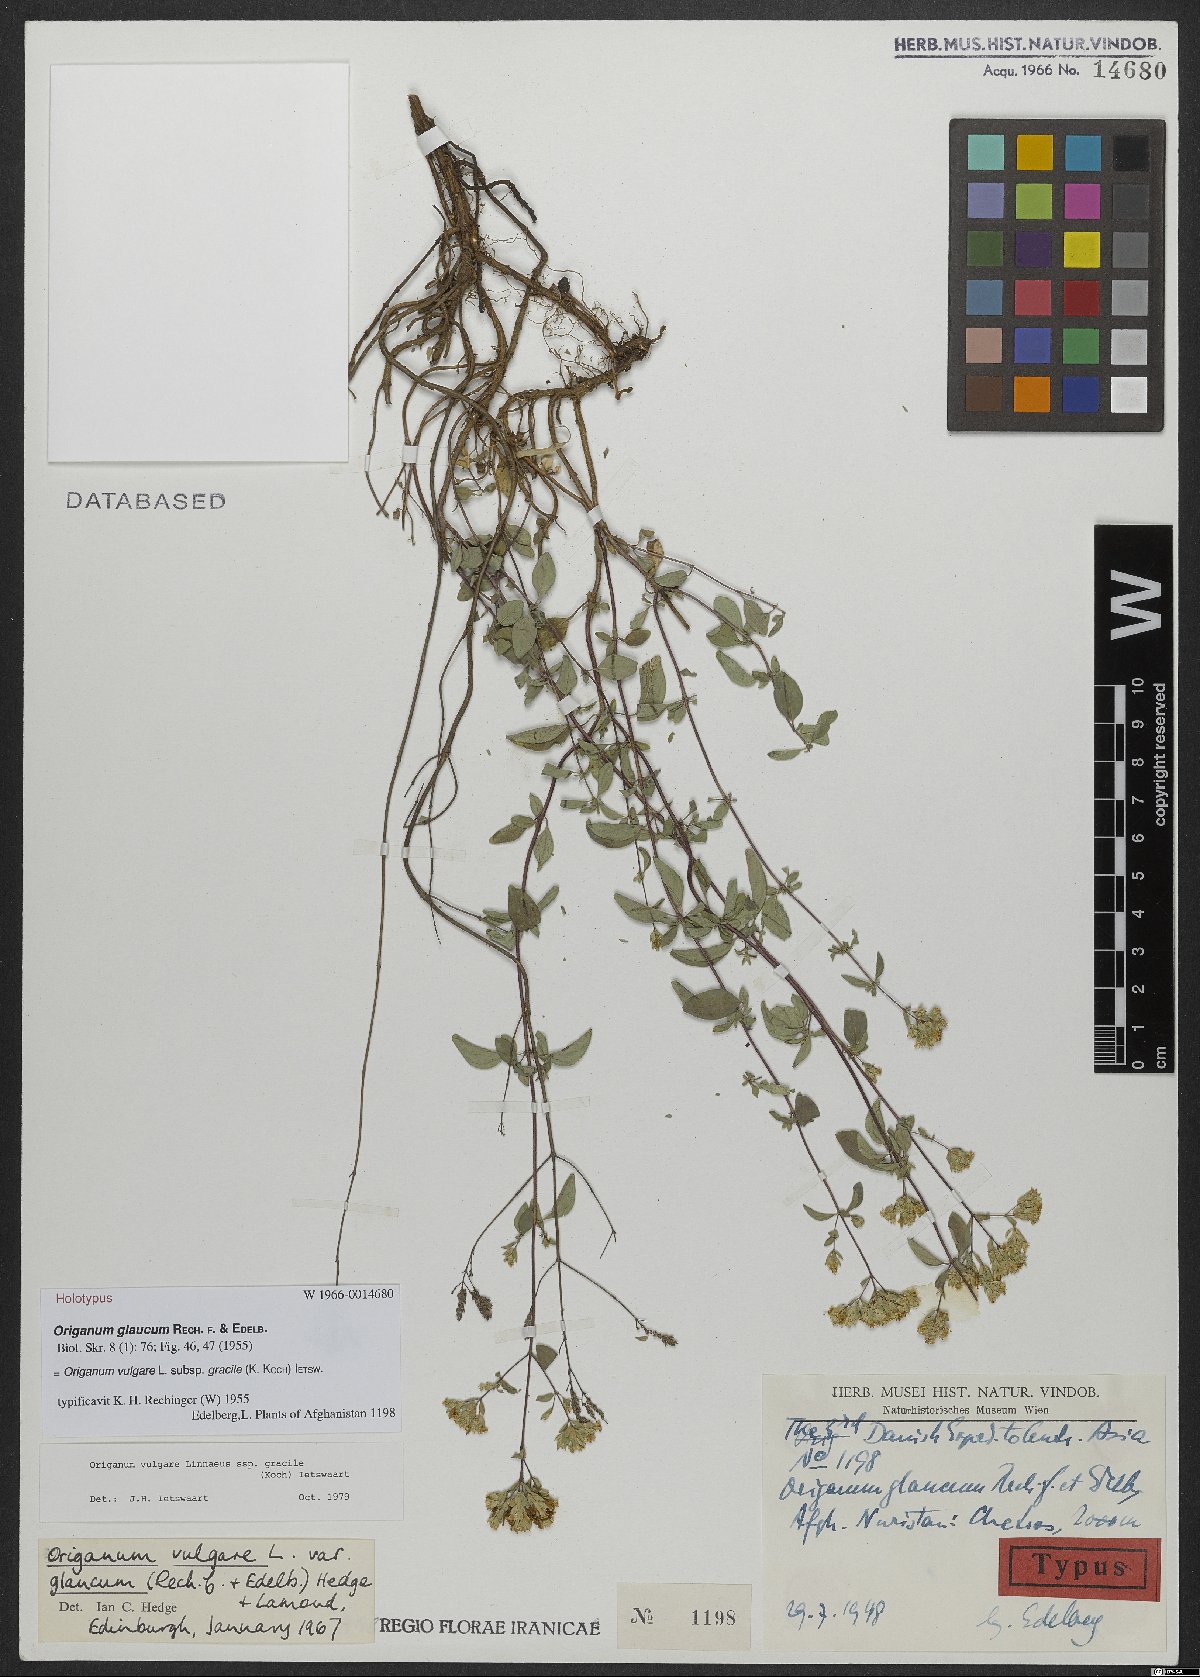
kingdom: Plantae
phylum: Tracheophyta
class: Magnoliopsida
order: Lamiales
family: Lamiaceae
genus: Origanum
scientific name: Origanum vulgare
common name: Wild marjoram
